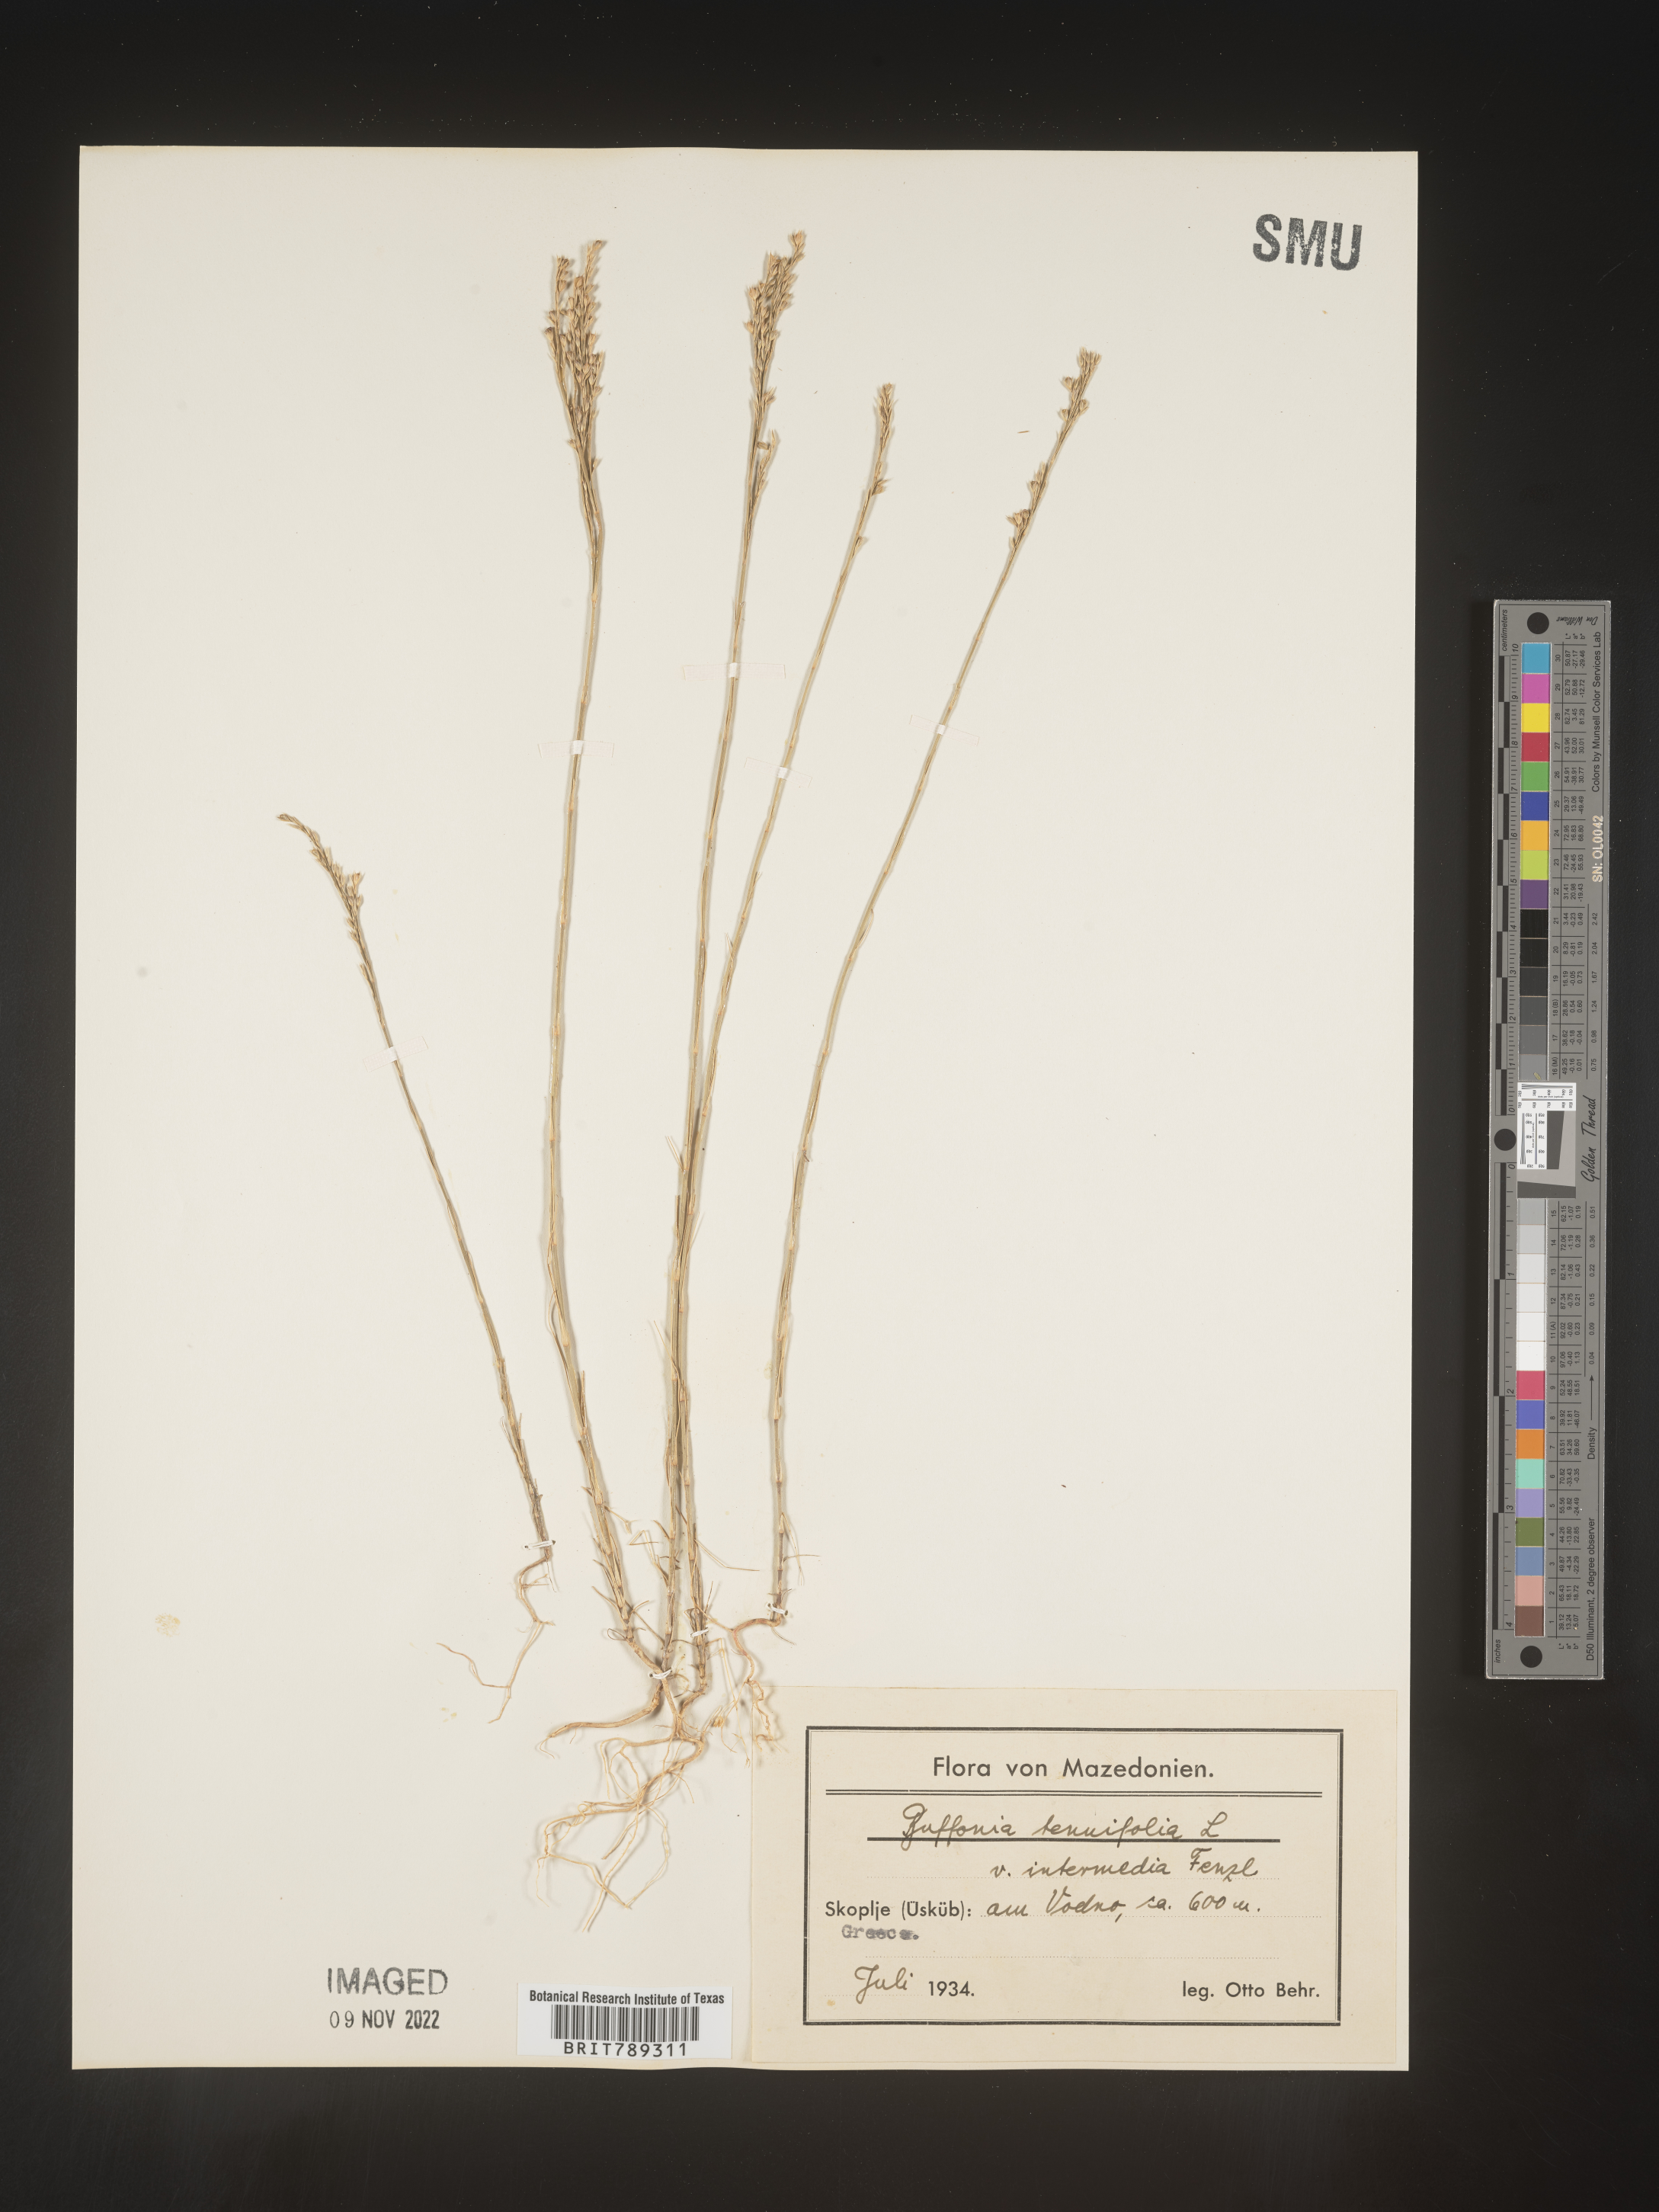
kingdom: Plantae
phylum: Tracheophyta
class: Magnoliopsida
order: Caryophyllales
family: Caryophyllaceae
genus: Buffonia
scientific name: Buffonia
